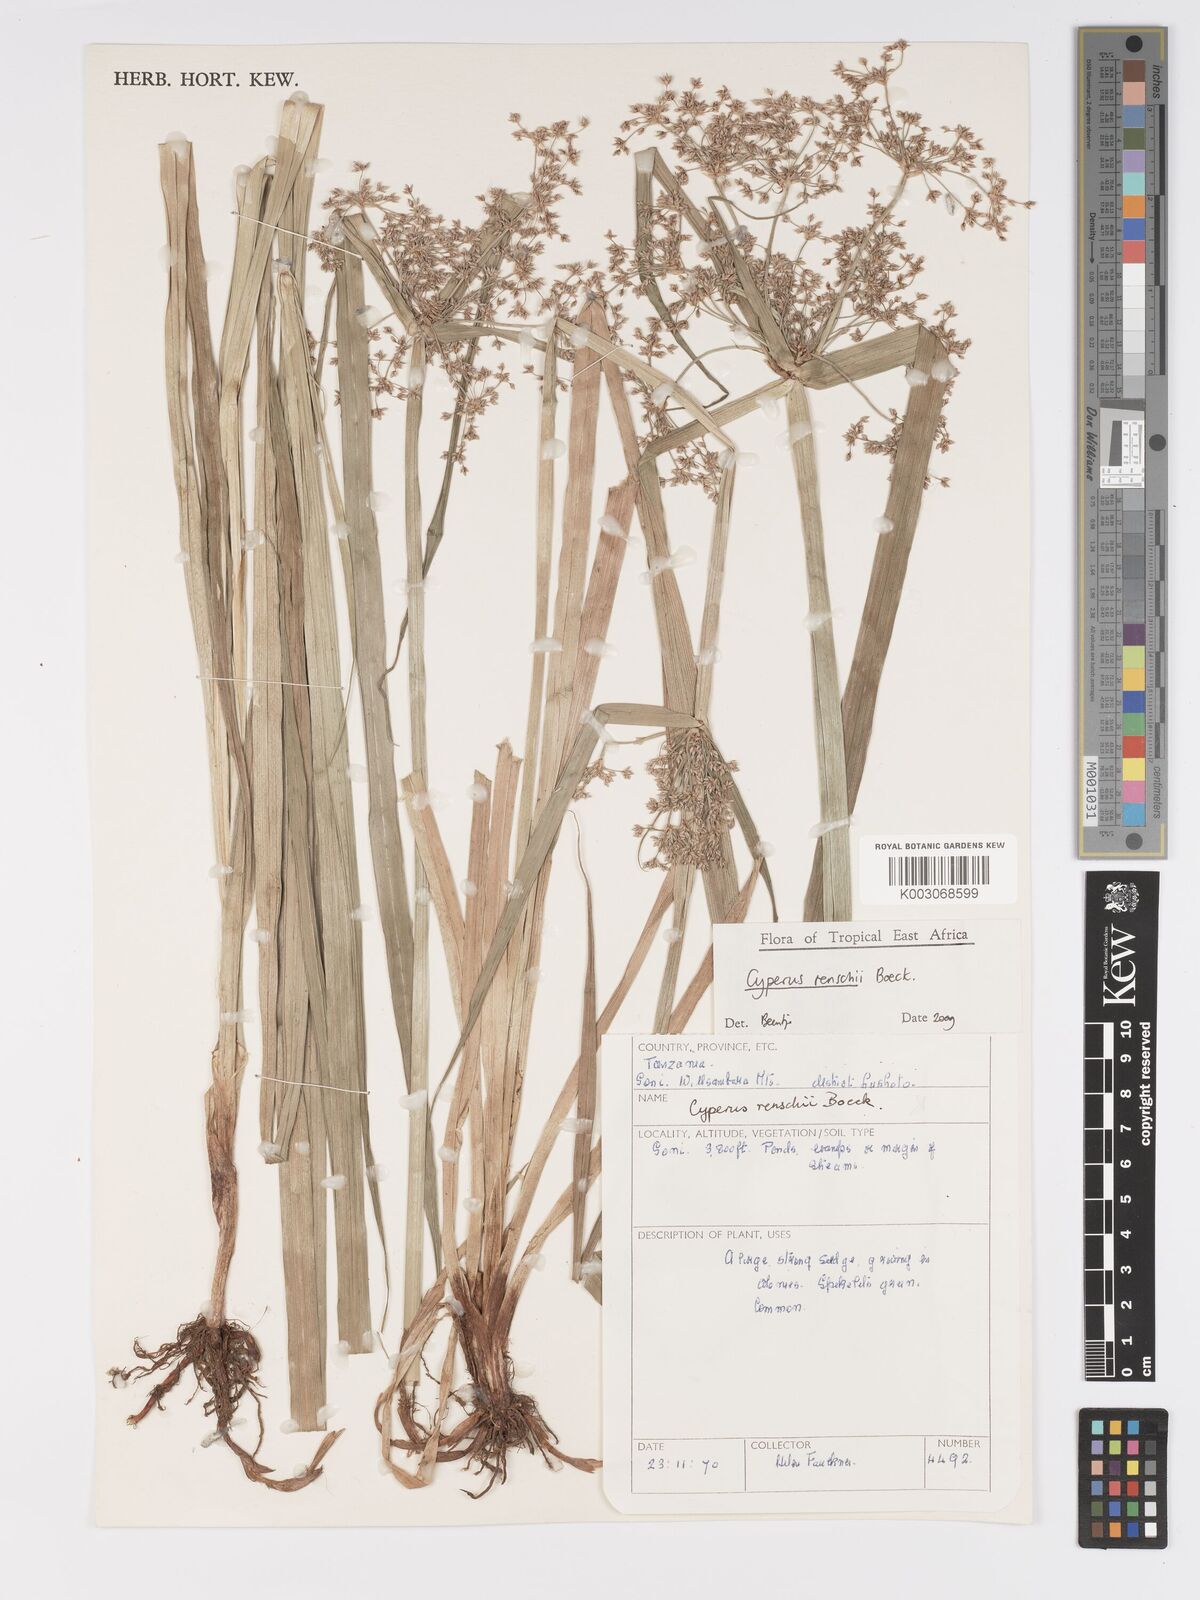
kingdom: Plantae
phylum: Tracheophyta
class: Liliopsida
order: Poales
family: Cyperaceae
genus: Cyperus
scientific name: Cyperus renschii
